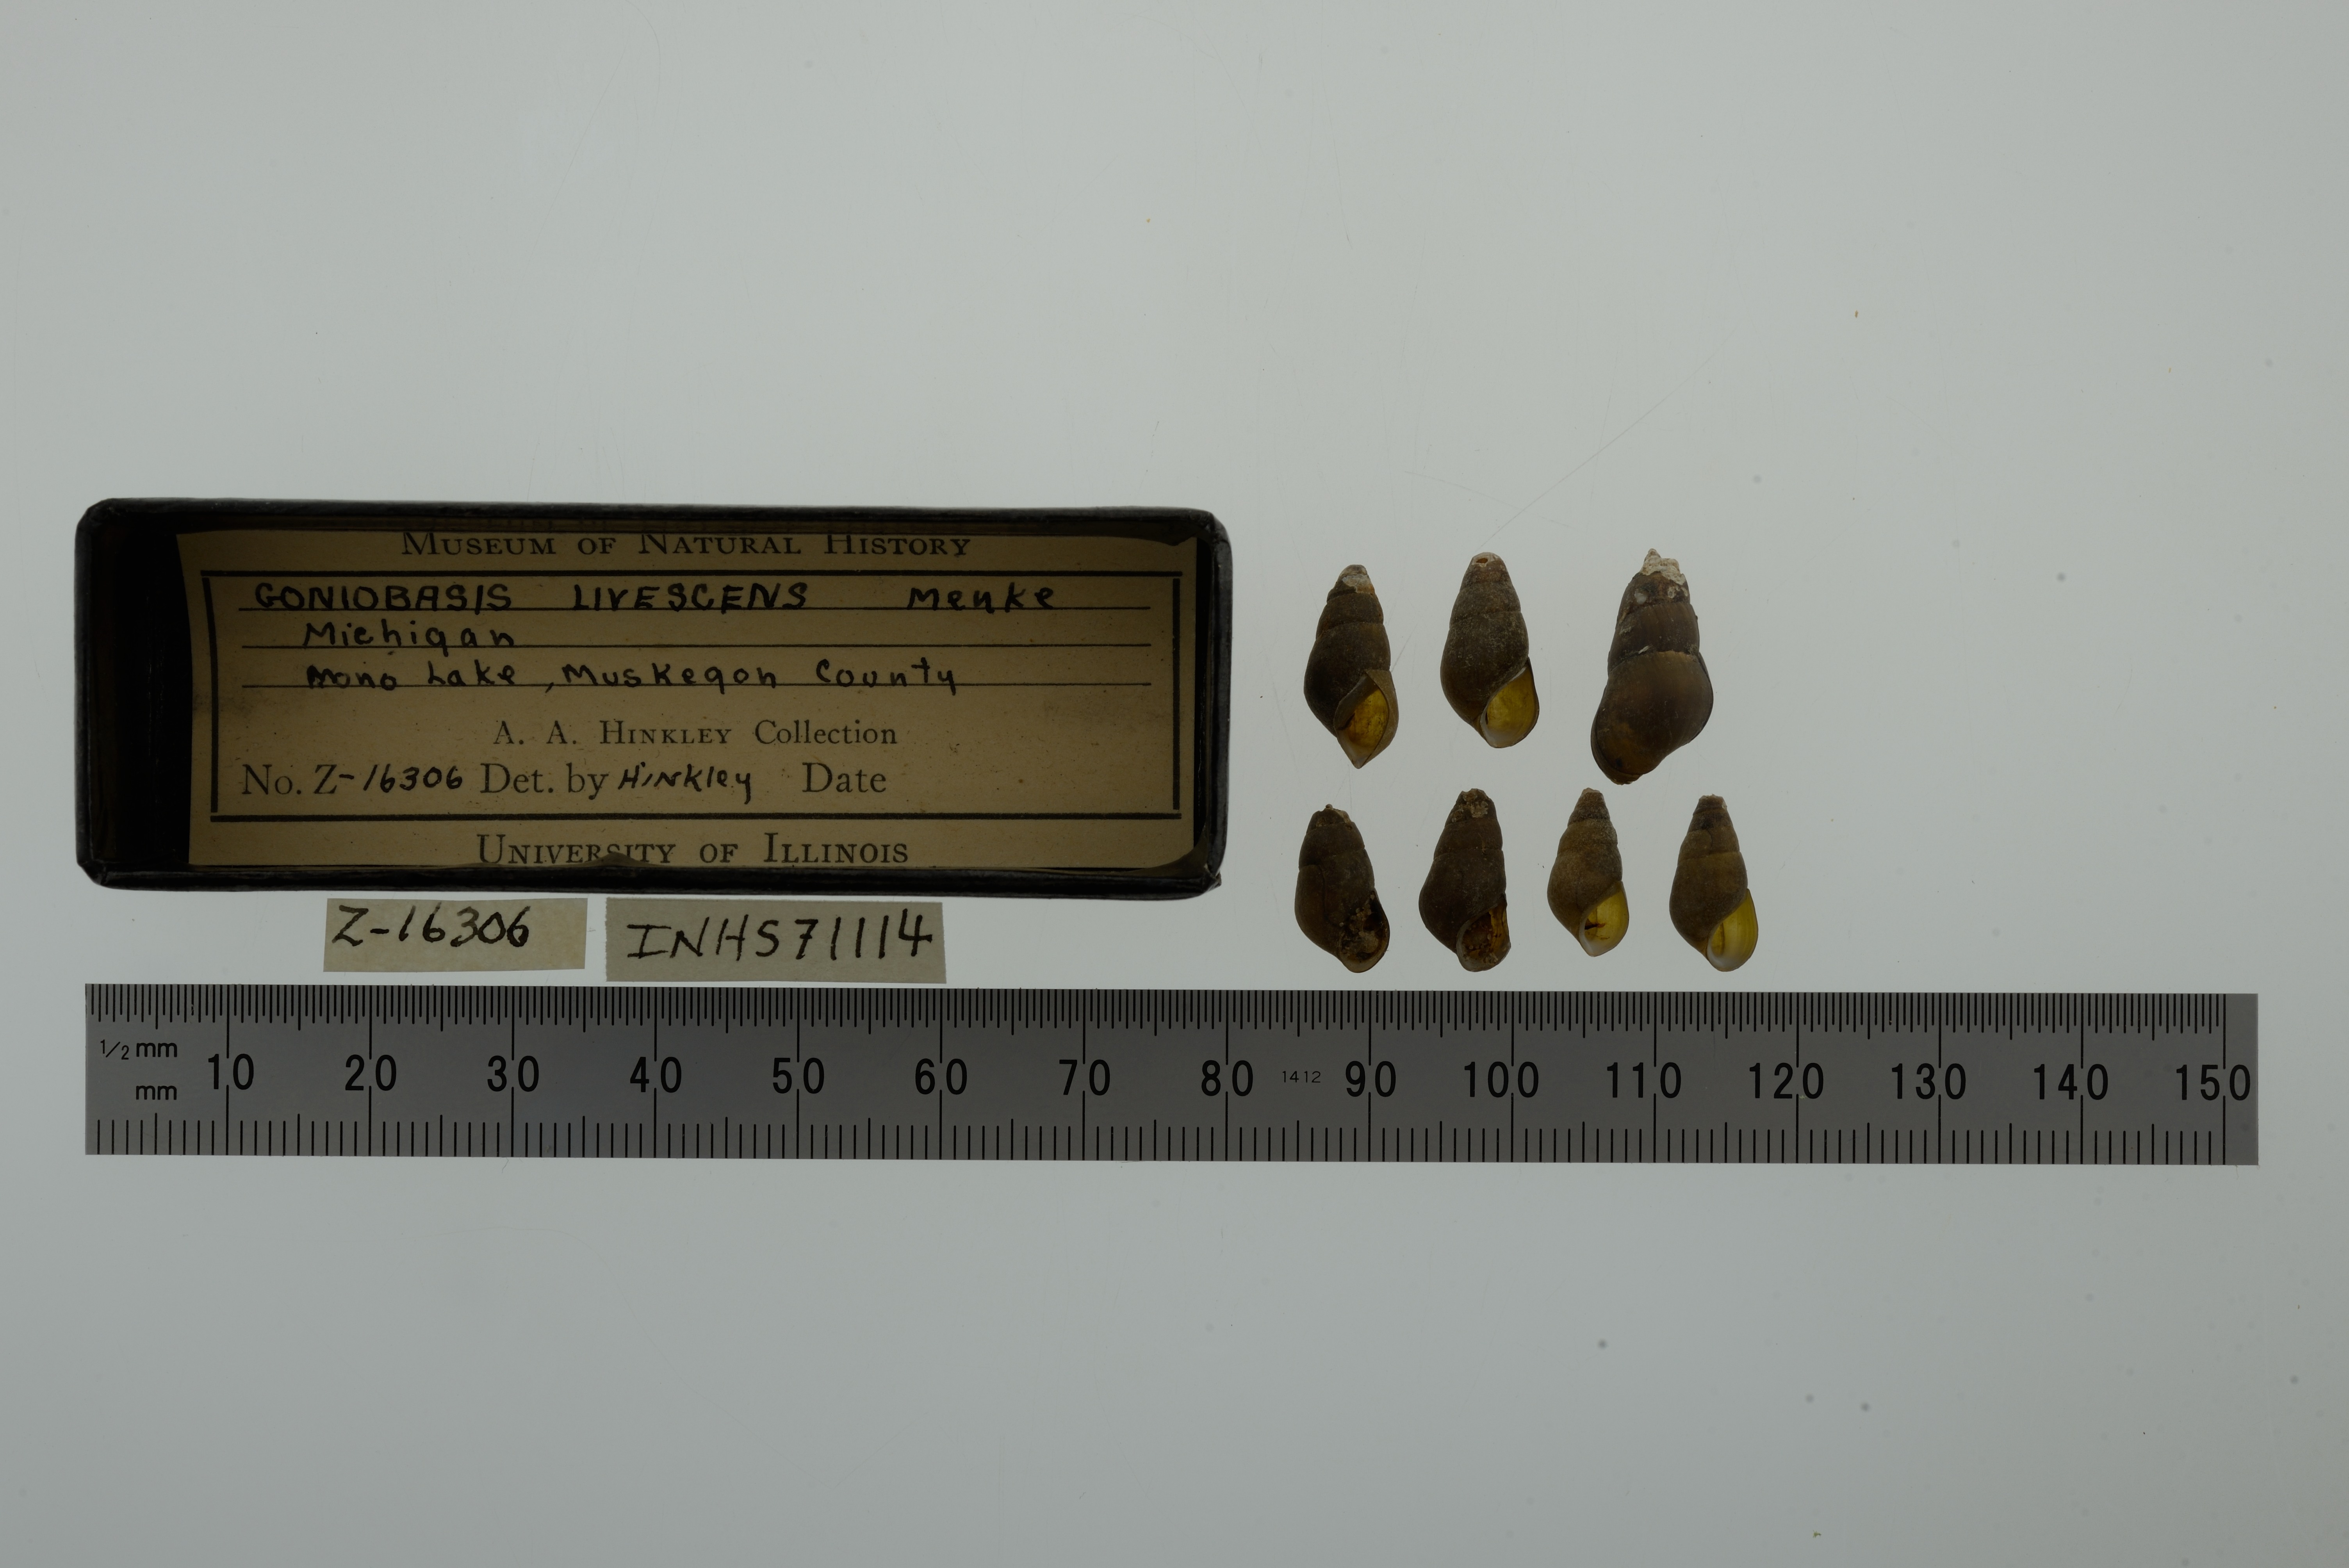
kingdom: Animalia
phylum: Mollusca
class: Gastropoda
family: Pleuroceridae
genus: Elimia
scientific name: Elimia livescens
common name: Liver elimia
